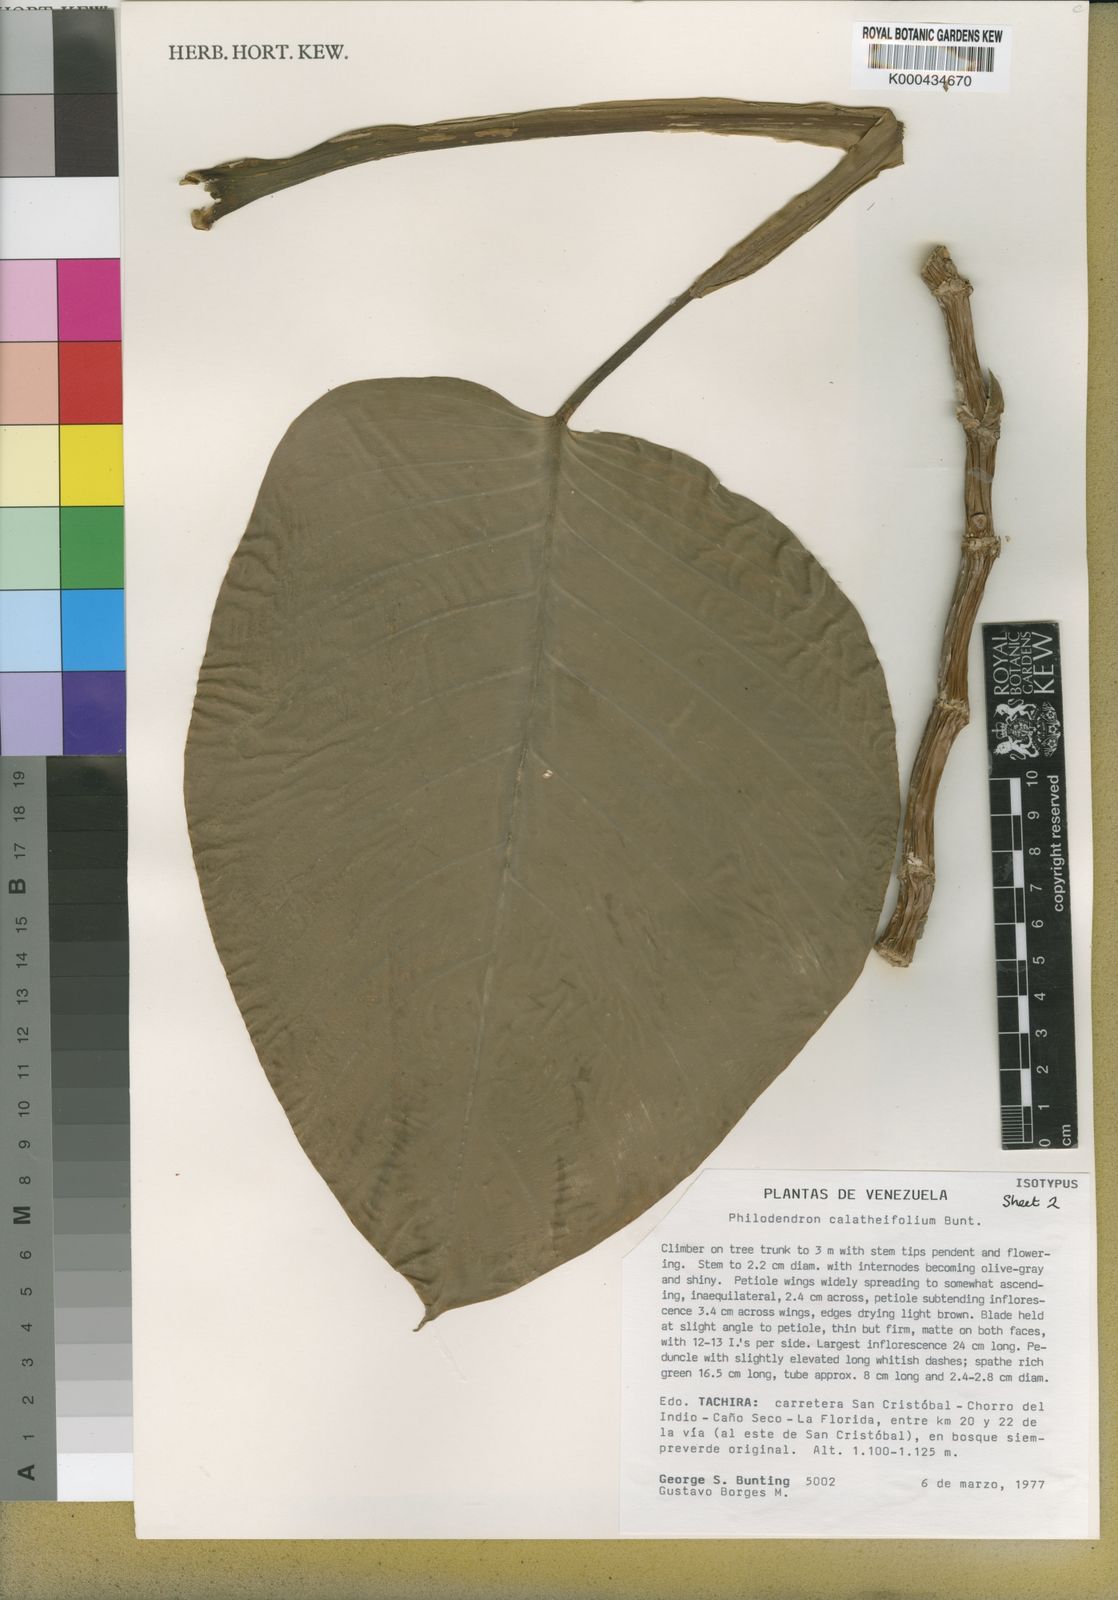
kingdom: Plantae
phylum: Tracheophyta
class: Liliopsida
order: Alismatales
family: Araceae
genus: Philodendron
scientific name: Philodendron calatheifolium
